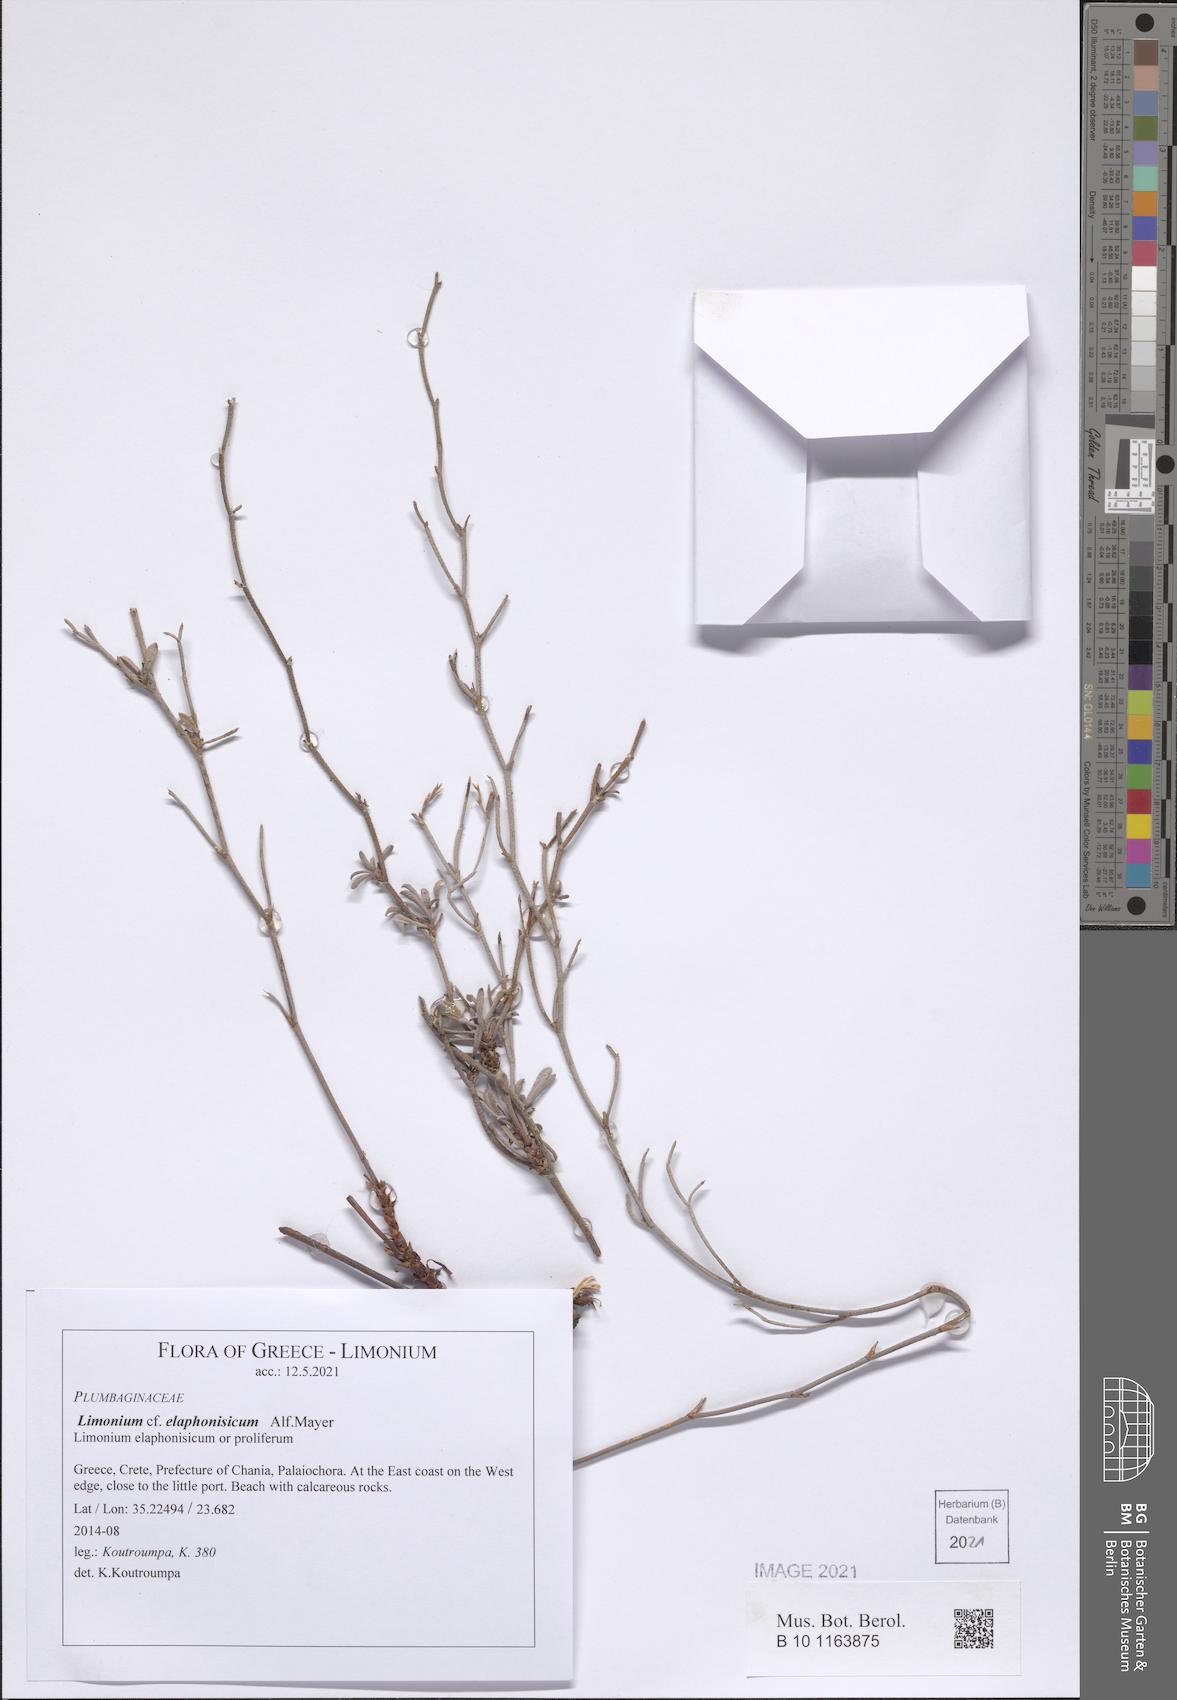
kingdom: Plantae
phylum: Tracheophyta
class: Magnoliopsida
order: Caryophyllales
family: Plumbaginaceae
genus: Limonium
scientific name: Limonium elaphonisicum
